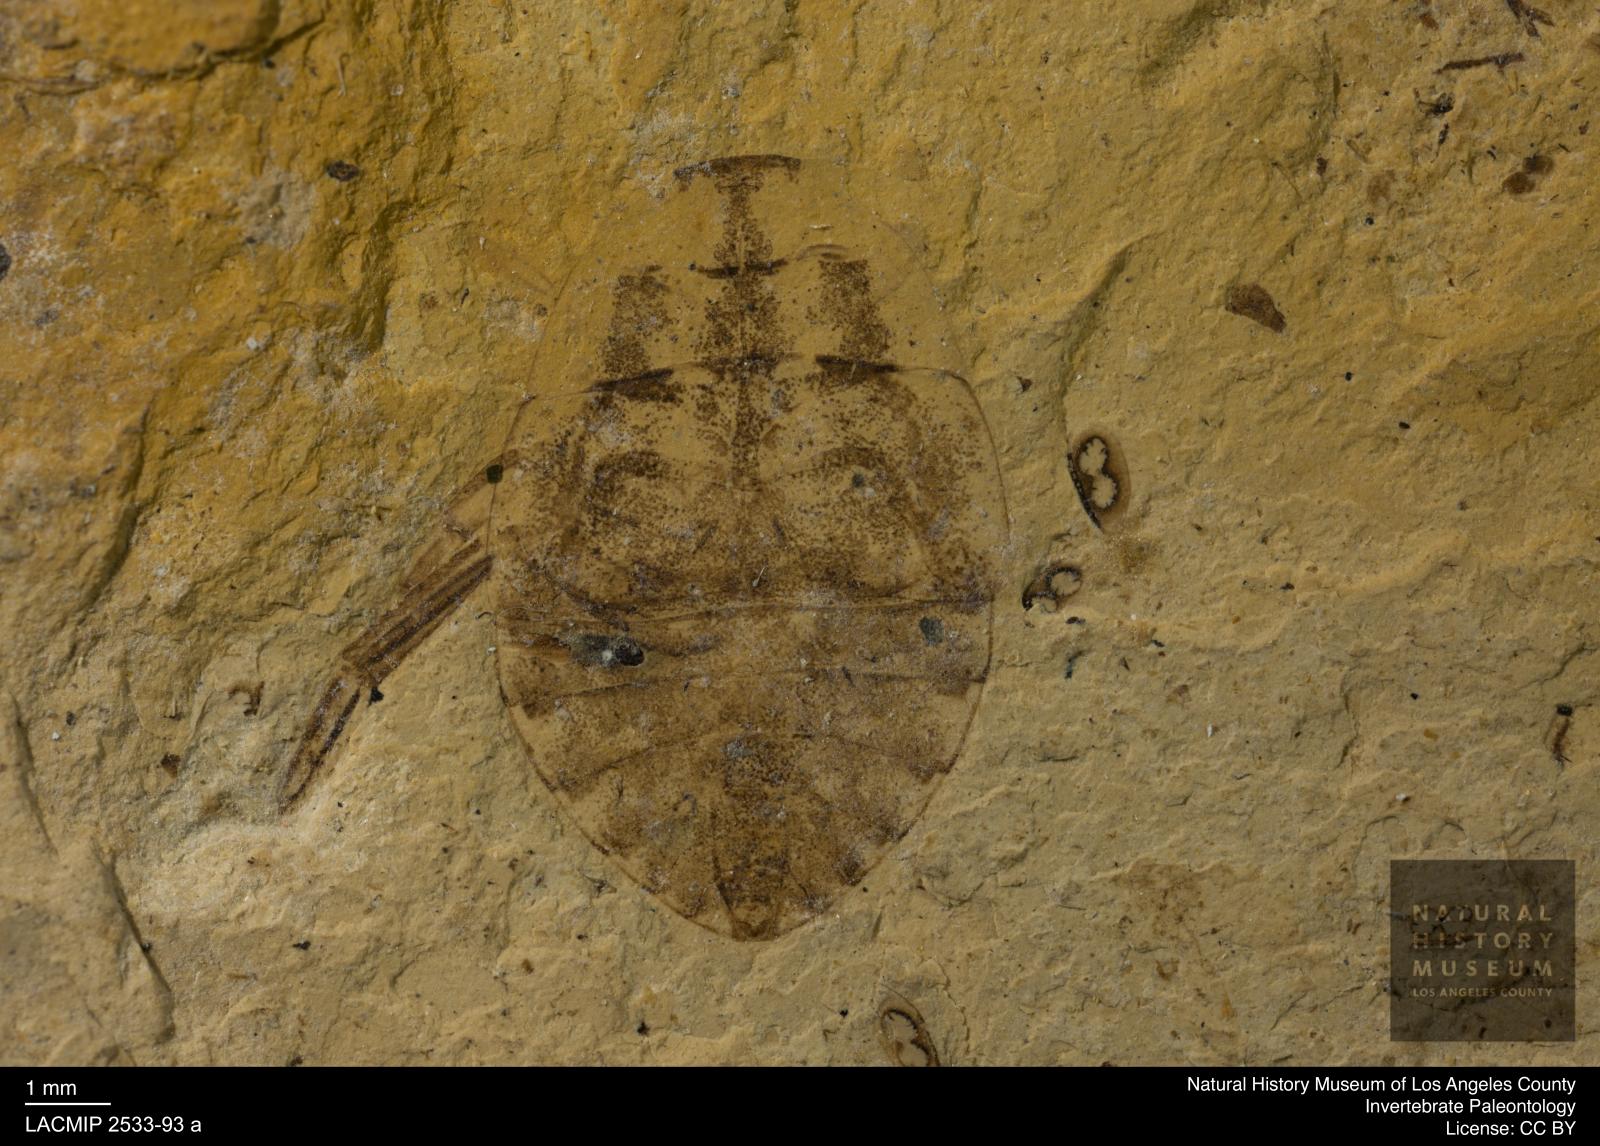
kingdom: Animalia
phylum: Arthropoda
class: Insecta
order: Hemiptera
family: Naucoridae
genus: Naucoris
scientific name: Naucoris rottensis
